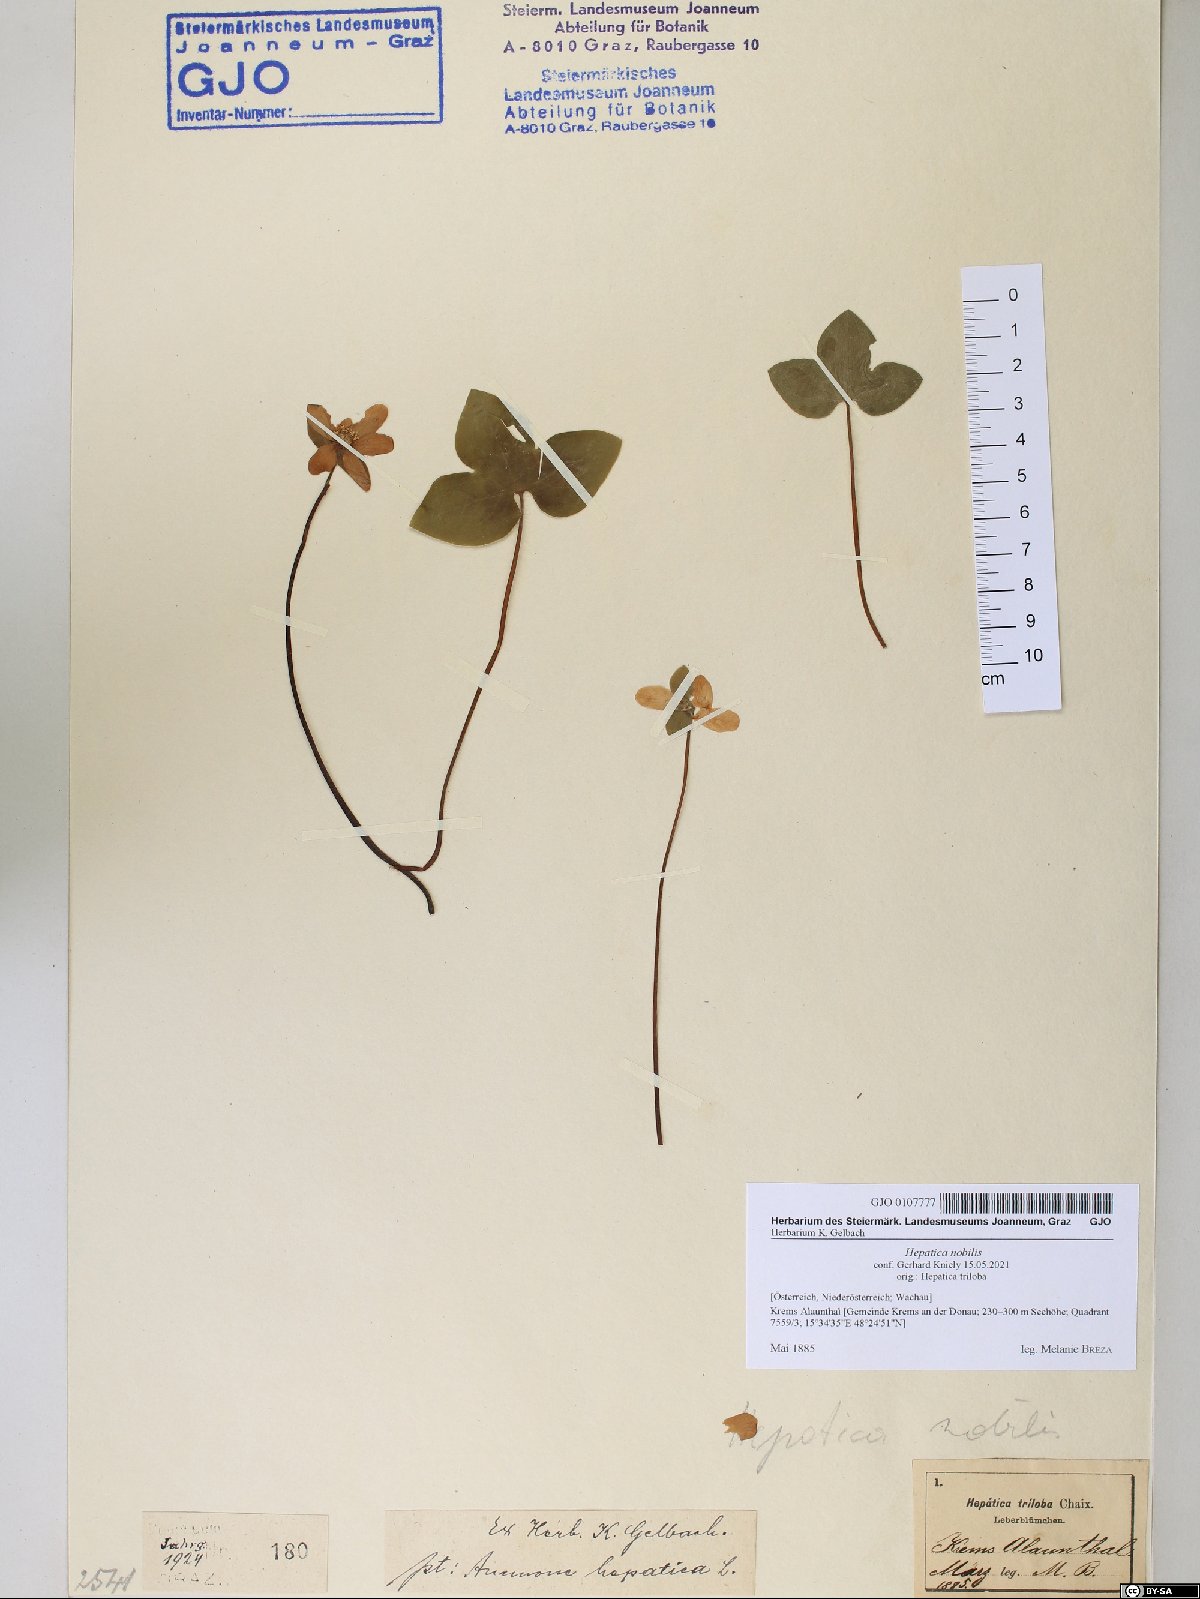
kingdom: Plantae
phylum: Tracheophyta
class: Magnoliopsida
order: Ranunculales
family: Ranunculaceae
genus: Hepatica
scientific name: Hepatica nobilis
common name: Liverleaf
